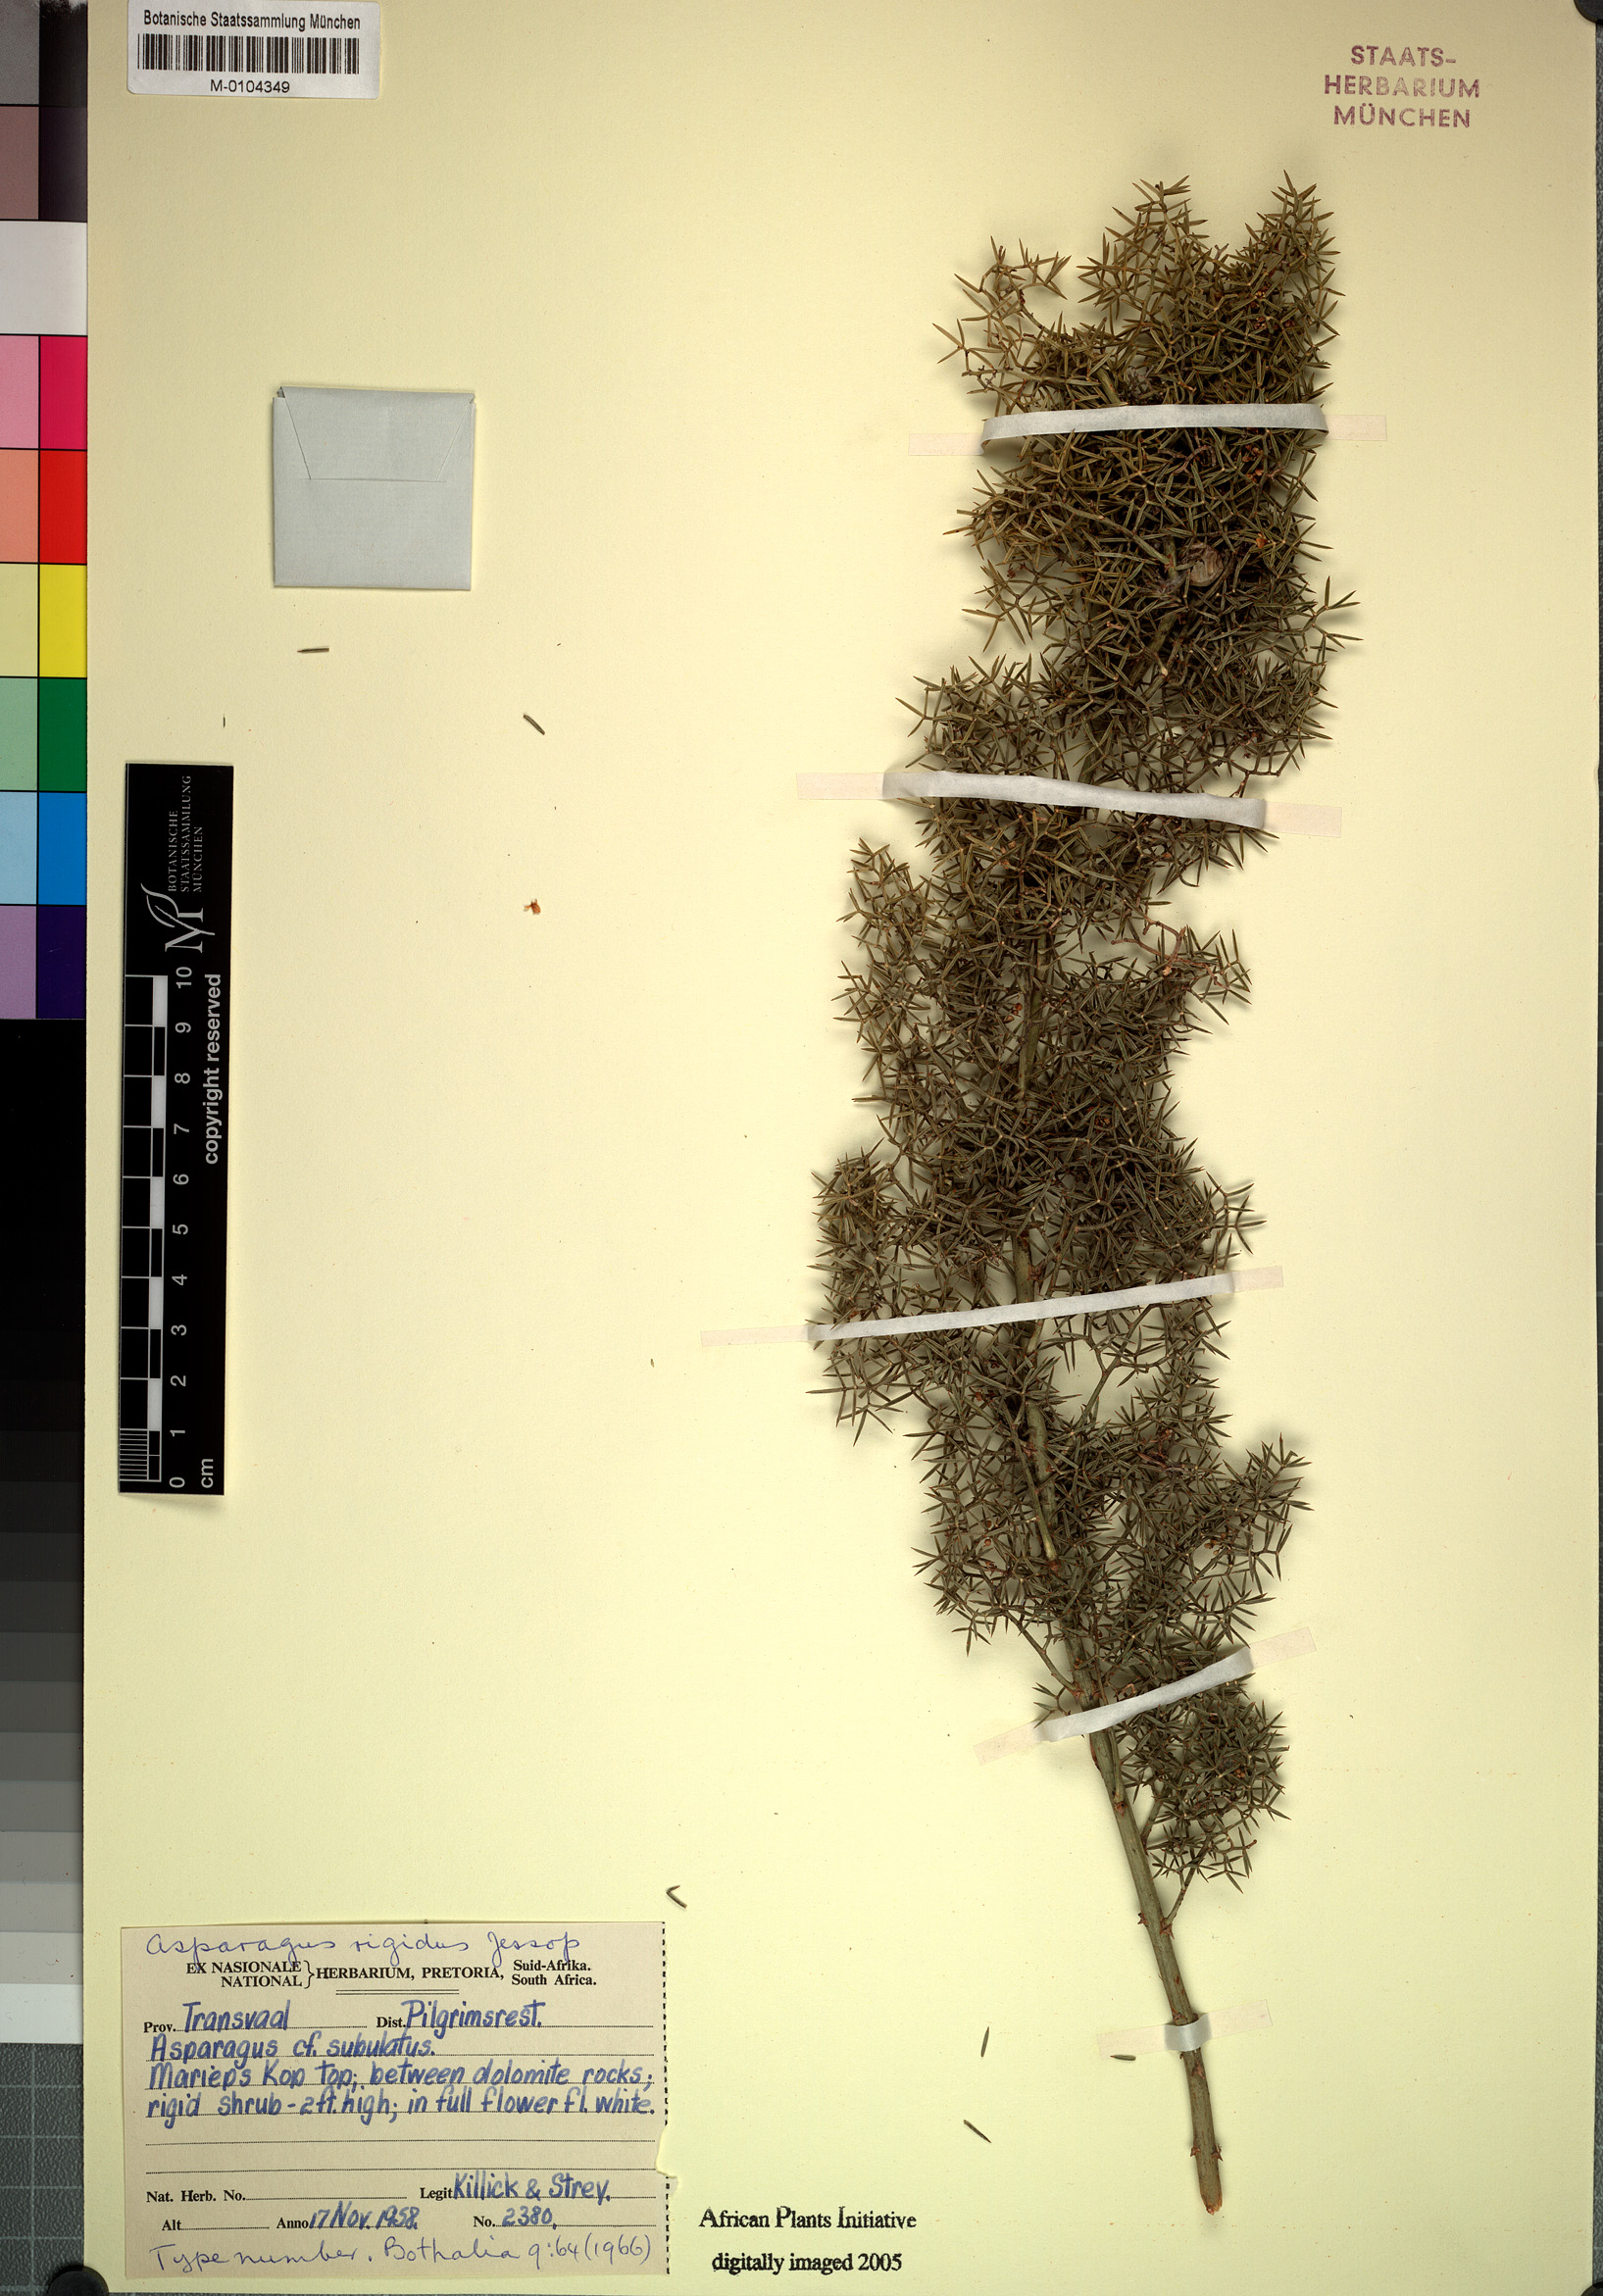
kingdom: Plantae
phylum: Tracheophyta
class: Liliopsida
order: Asparagales
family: Asparagaceae
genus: Asparagus
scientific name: Asparagus rigidus
